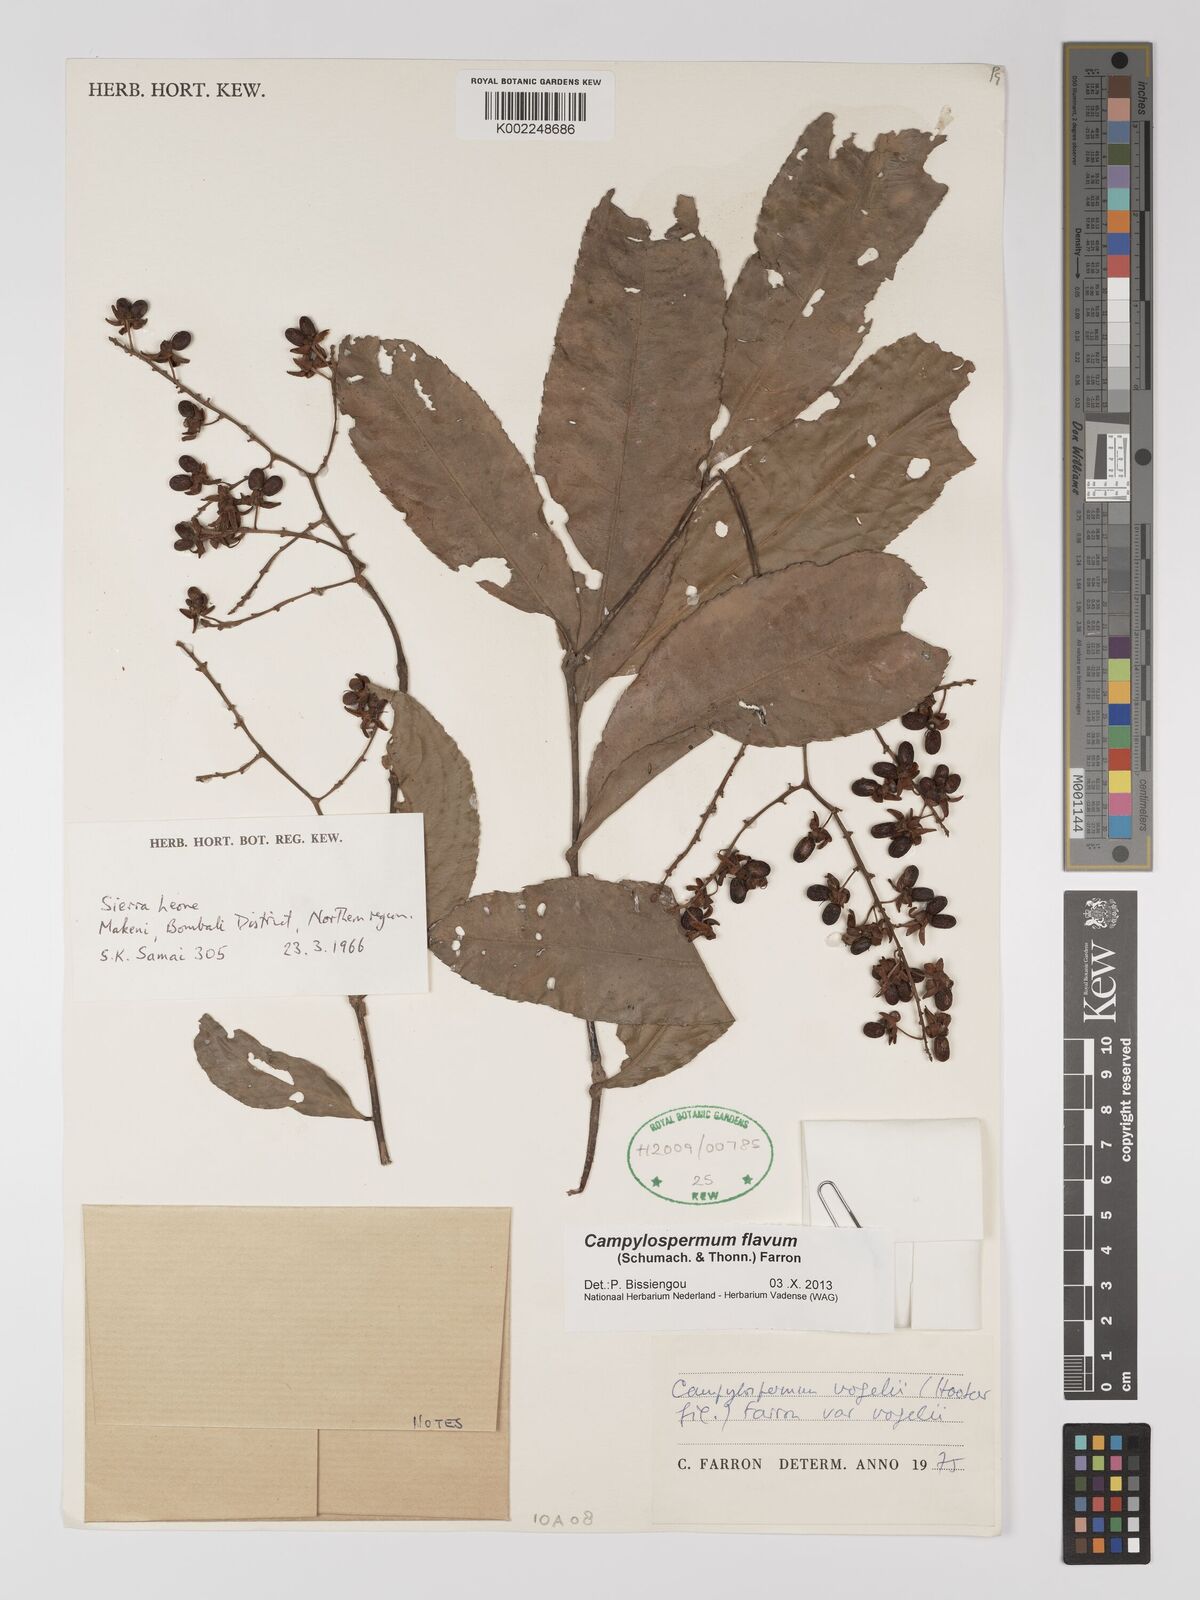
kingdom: Plantae
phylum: Tracheophyta
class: Magnoliopsida
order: Malpighiales
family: Ochnaceae
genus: Campylospermum
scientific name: Campylospermum flavum
